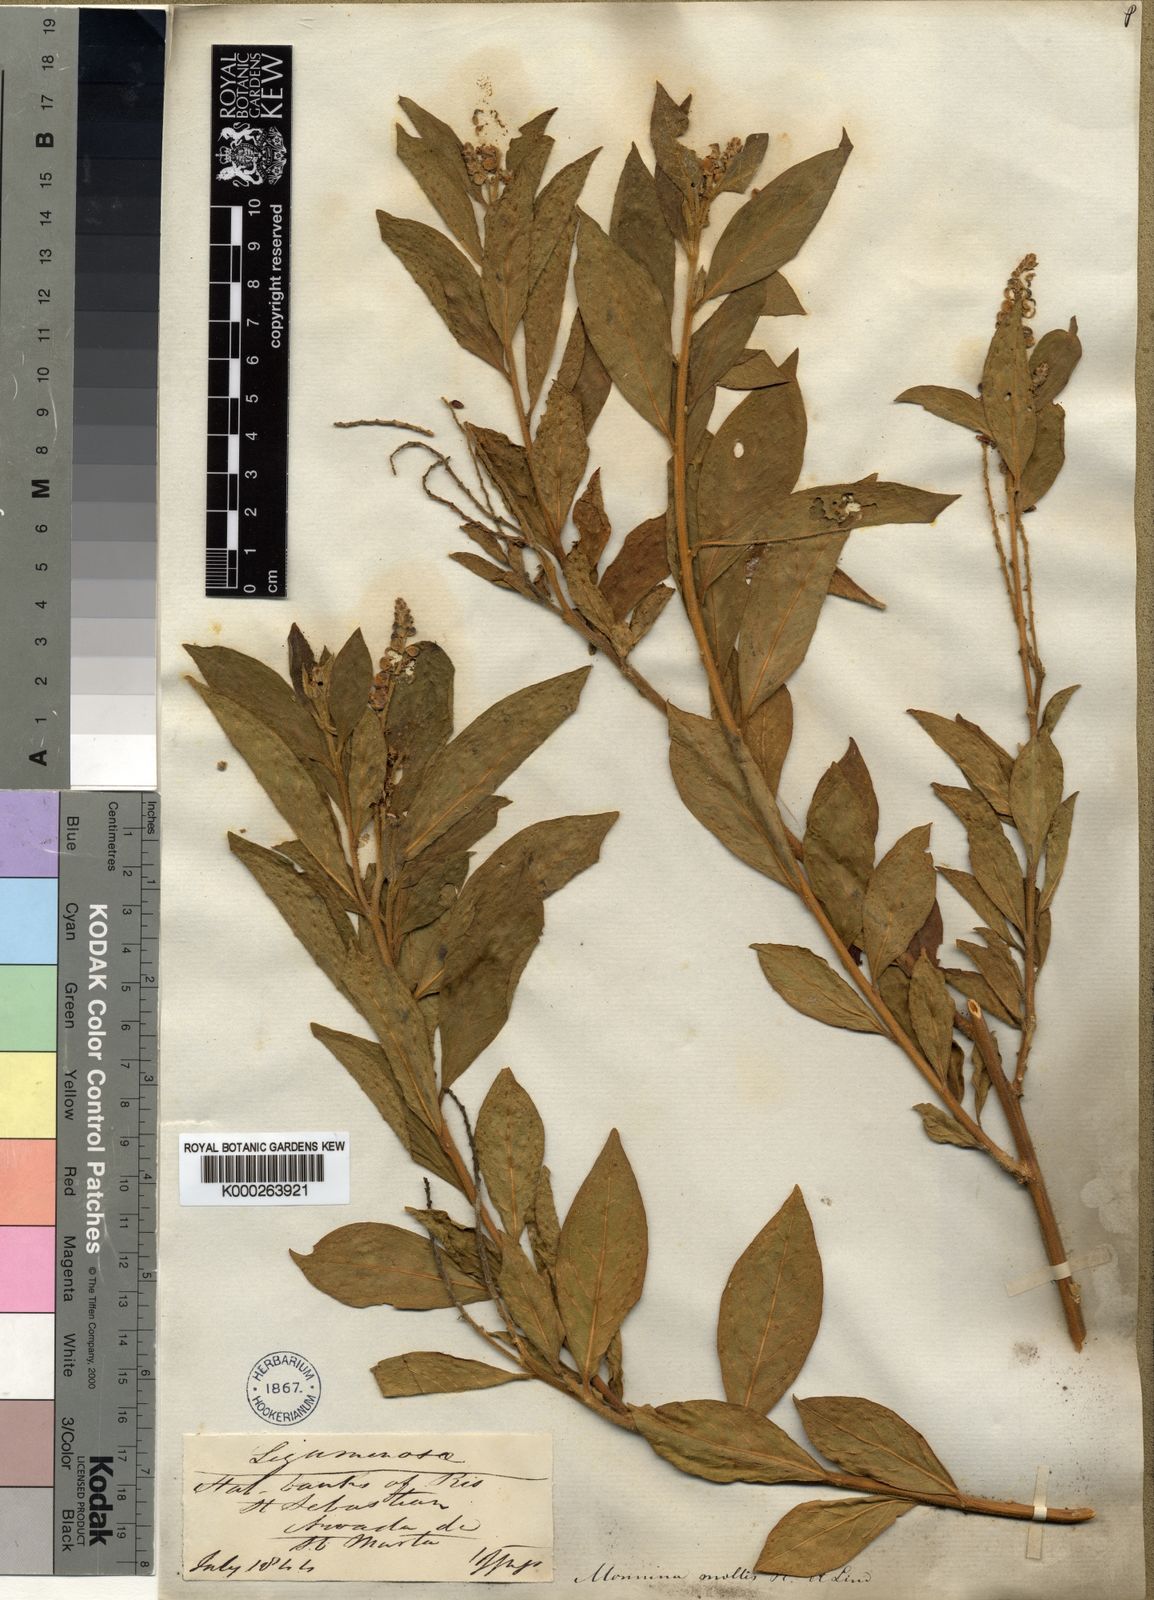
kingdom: Plantae
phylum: Tracheophyta
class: Magnoliopsida
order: Fabales
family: Polygalaceae
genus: Monnina
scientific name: Monnina mollis
